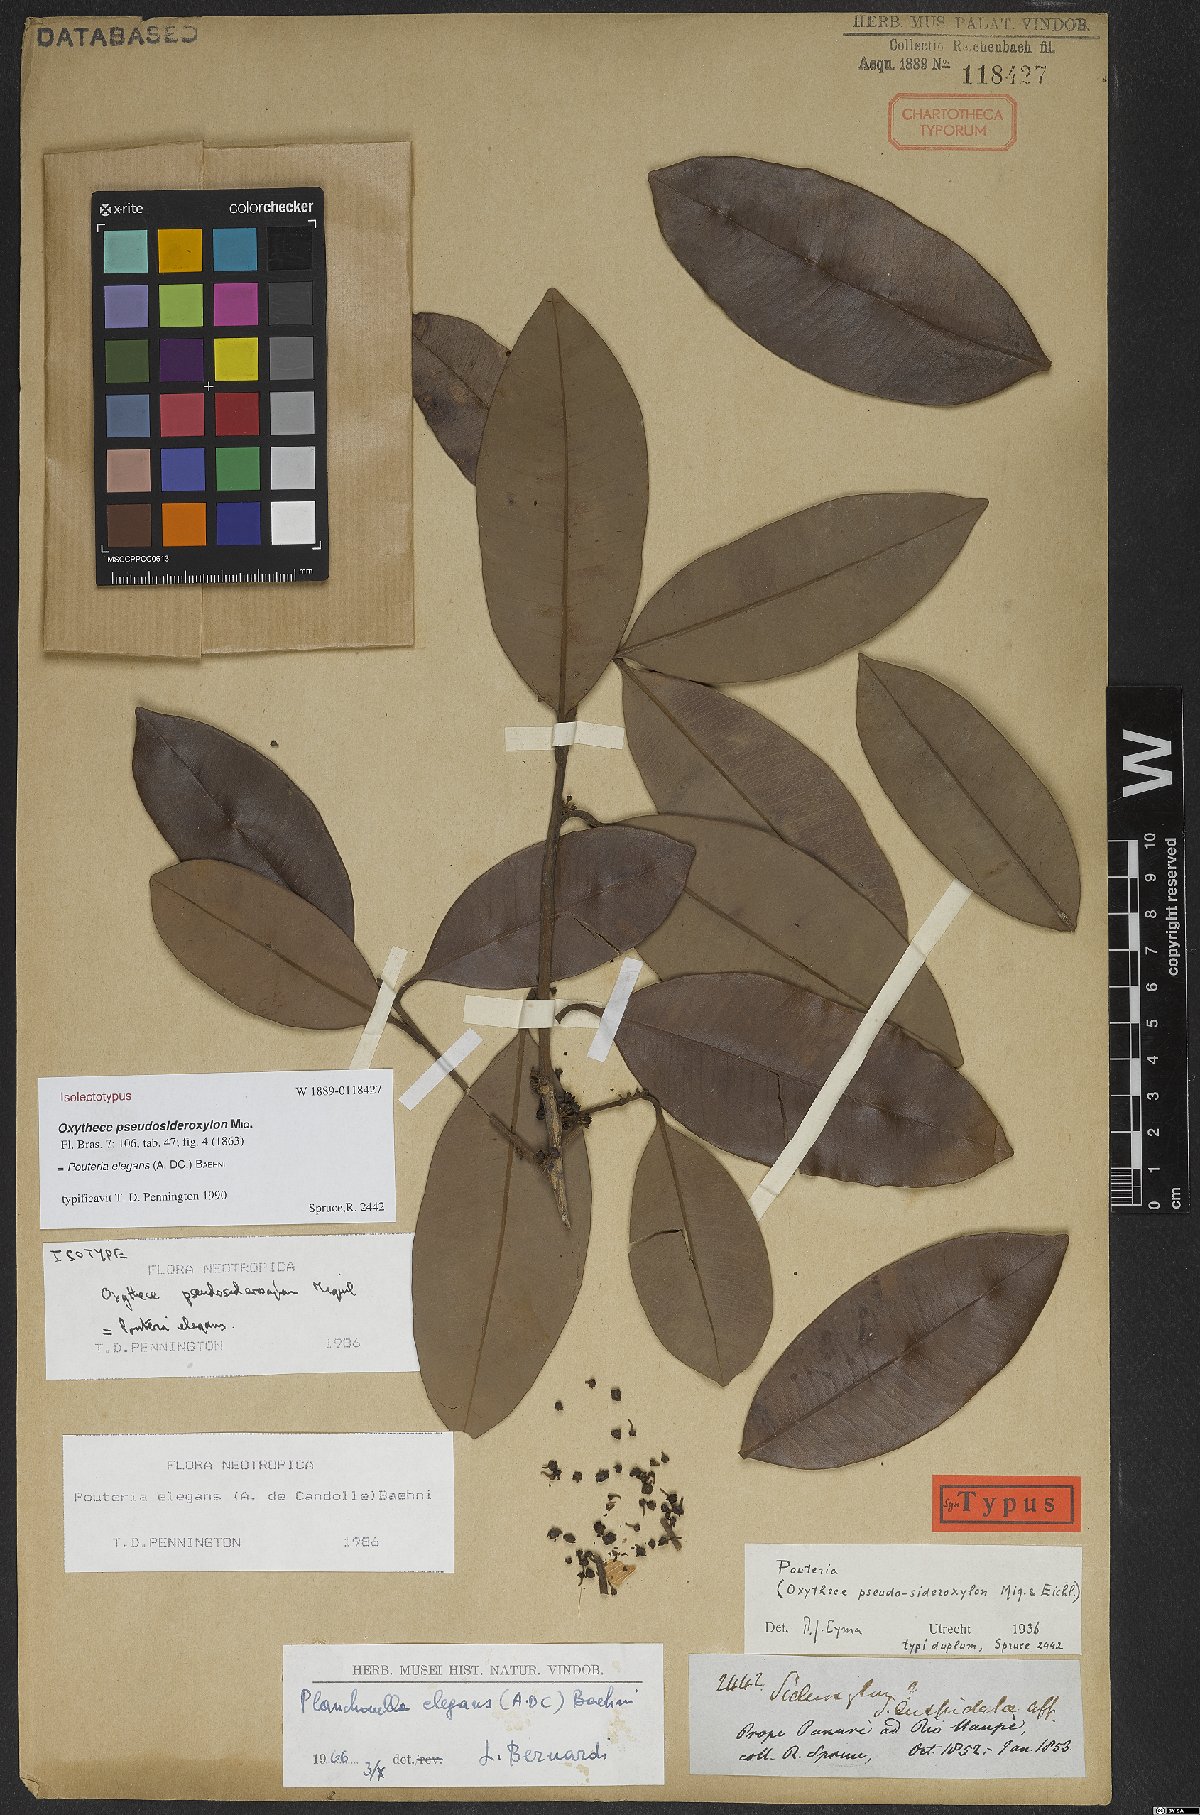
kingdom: Plantae
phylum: Tracheophyta
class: Magnoliopsida
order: Ericales
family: Sapotaceae
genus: Pouteria
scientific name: Pouteria elegans
